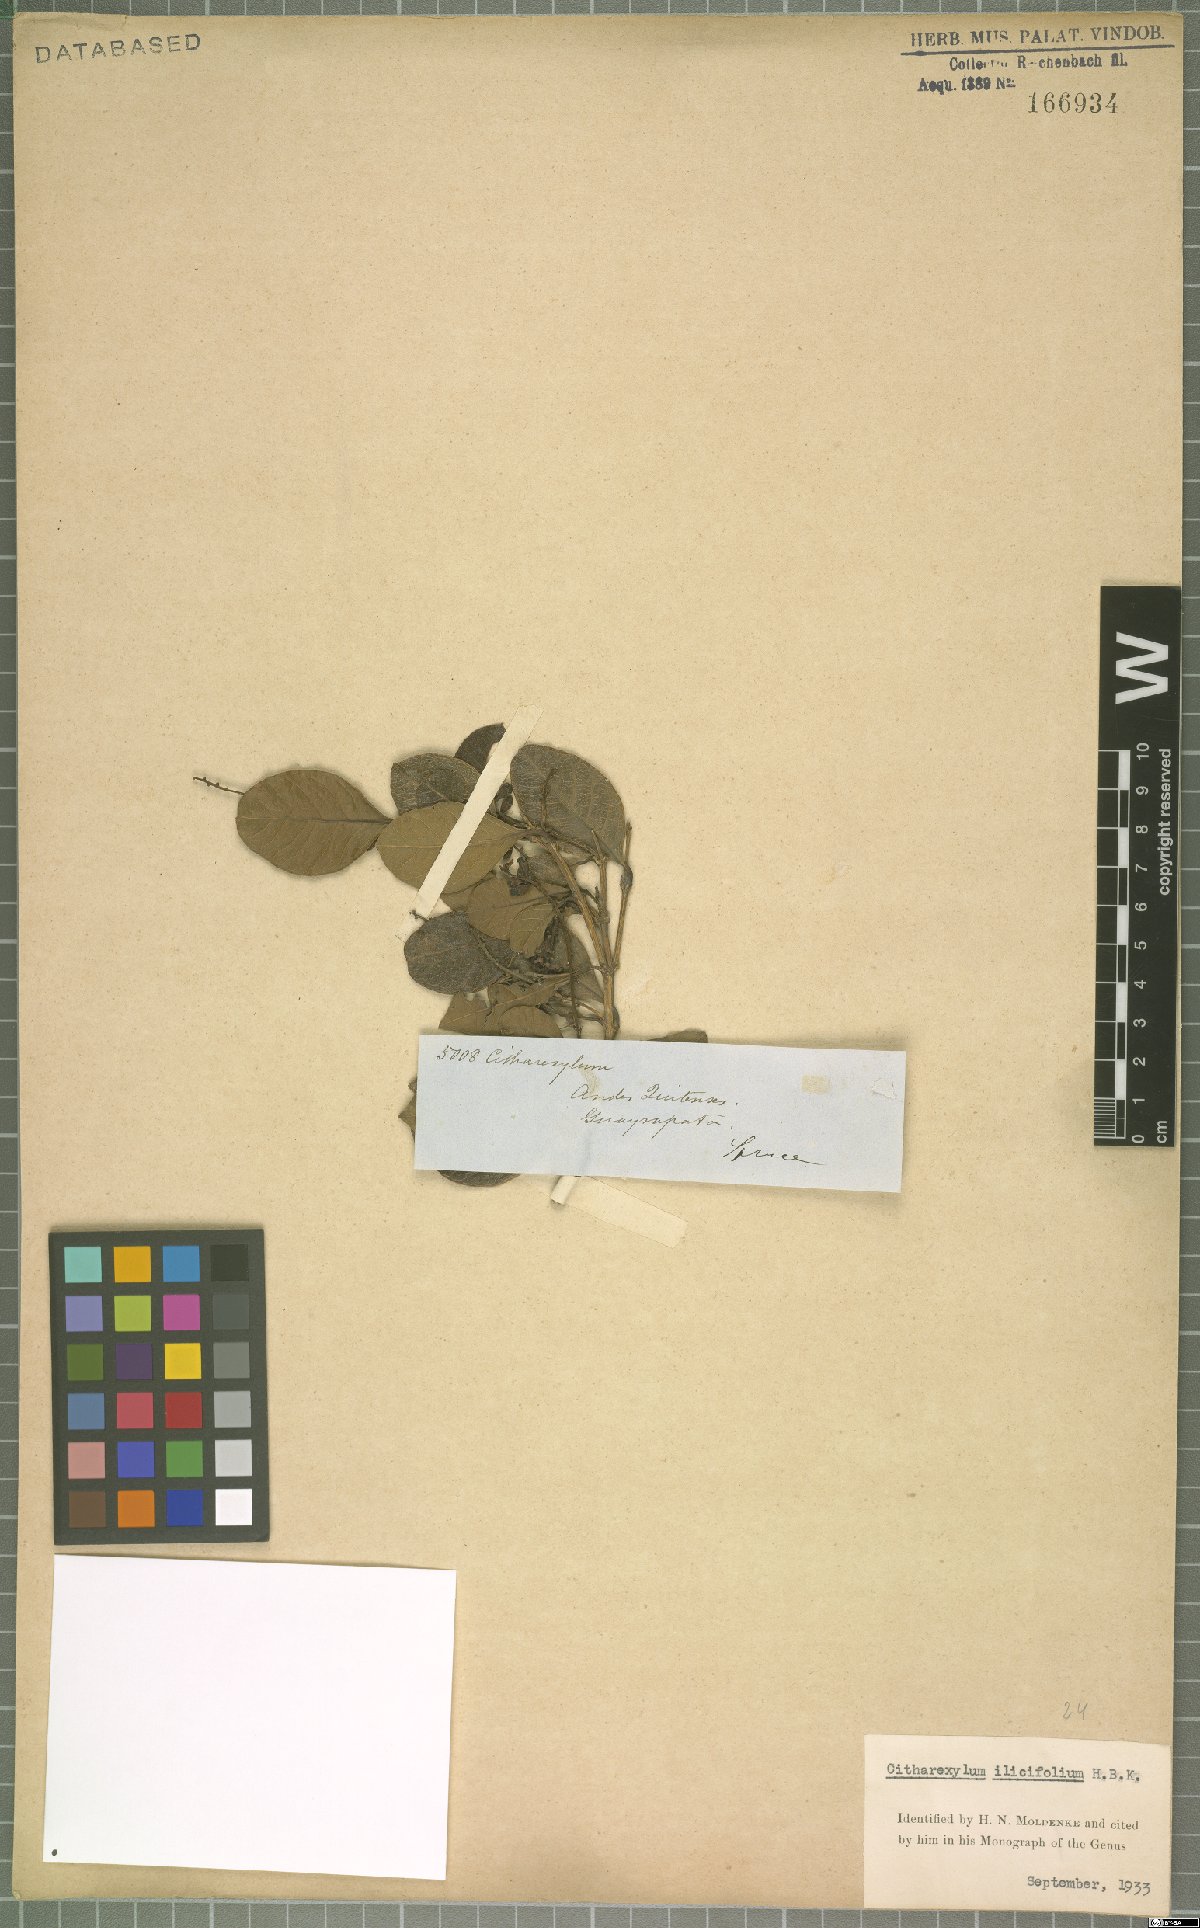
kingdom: Plantae
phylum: Tracheophyta
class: Magnoliopsida
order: Lamiales
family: Verbenaceae
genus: Citharexylum
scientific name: Citharexylum ilicifolium
